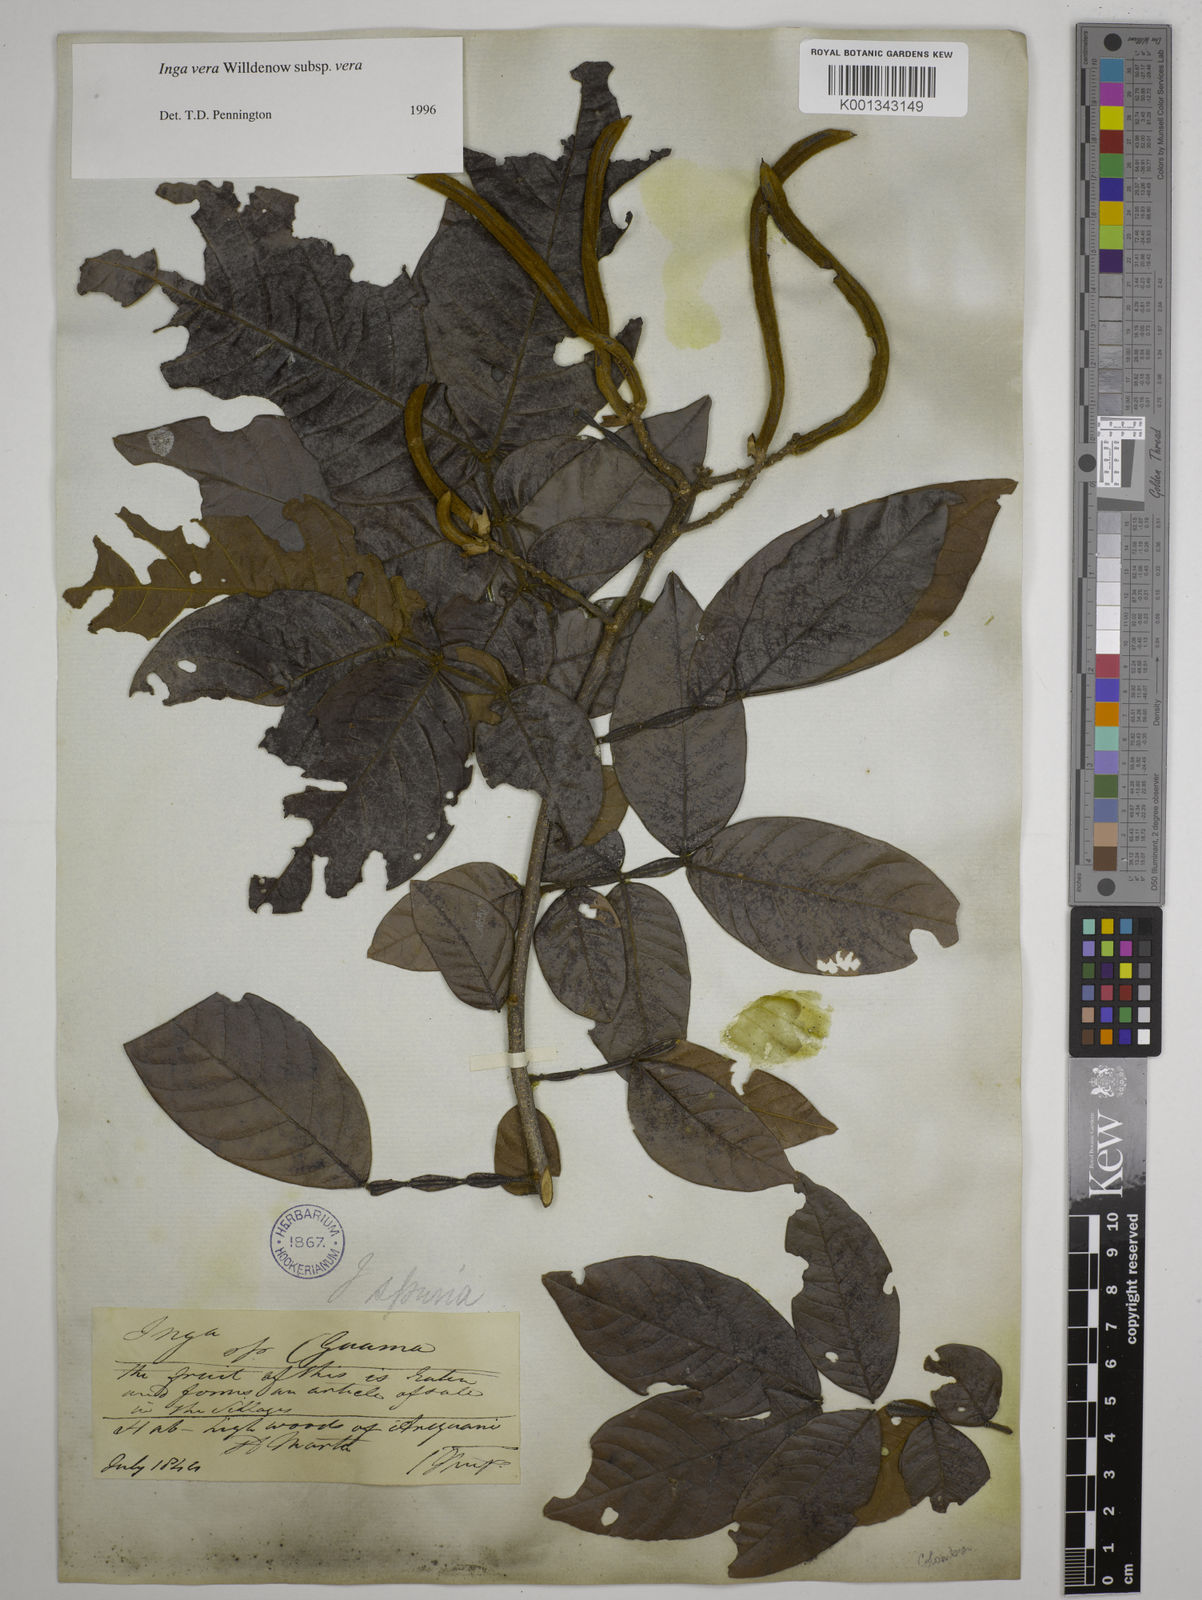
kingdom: Plantae
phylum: Tracheophyta
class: Magnoliopsida
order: Fabales
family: Fabaceae
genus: Inga
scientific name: Inga vera
